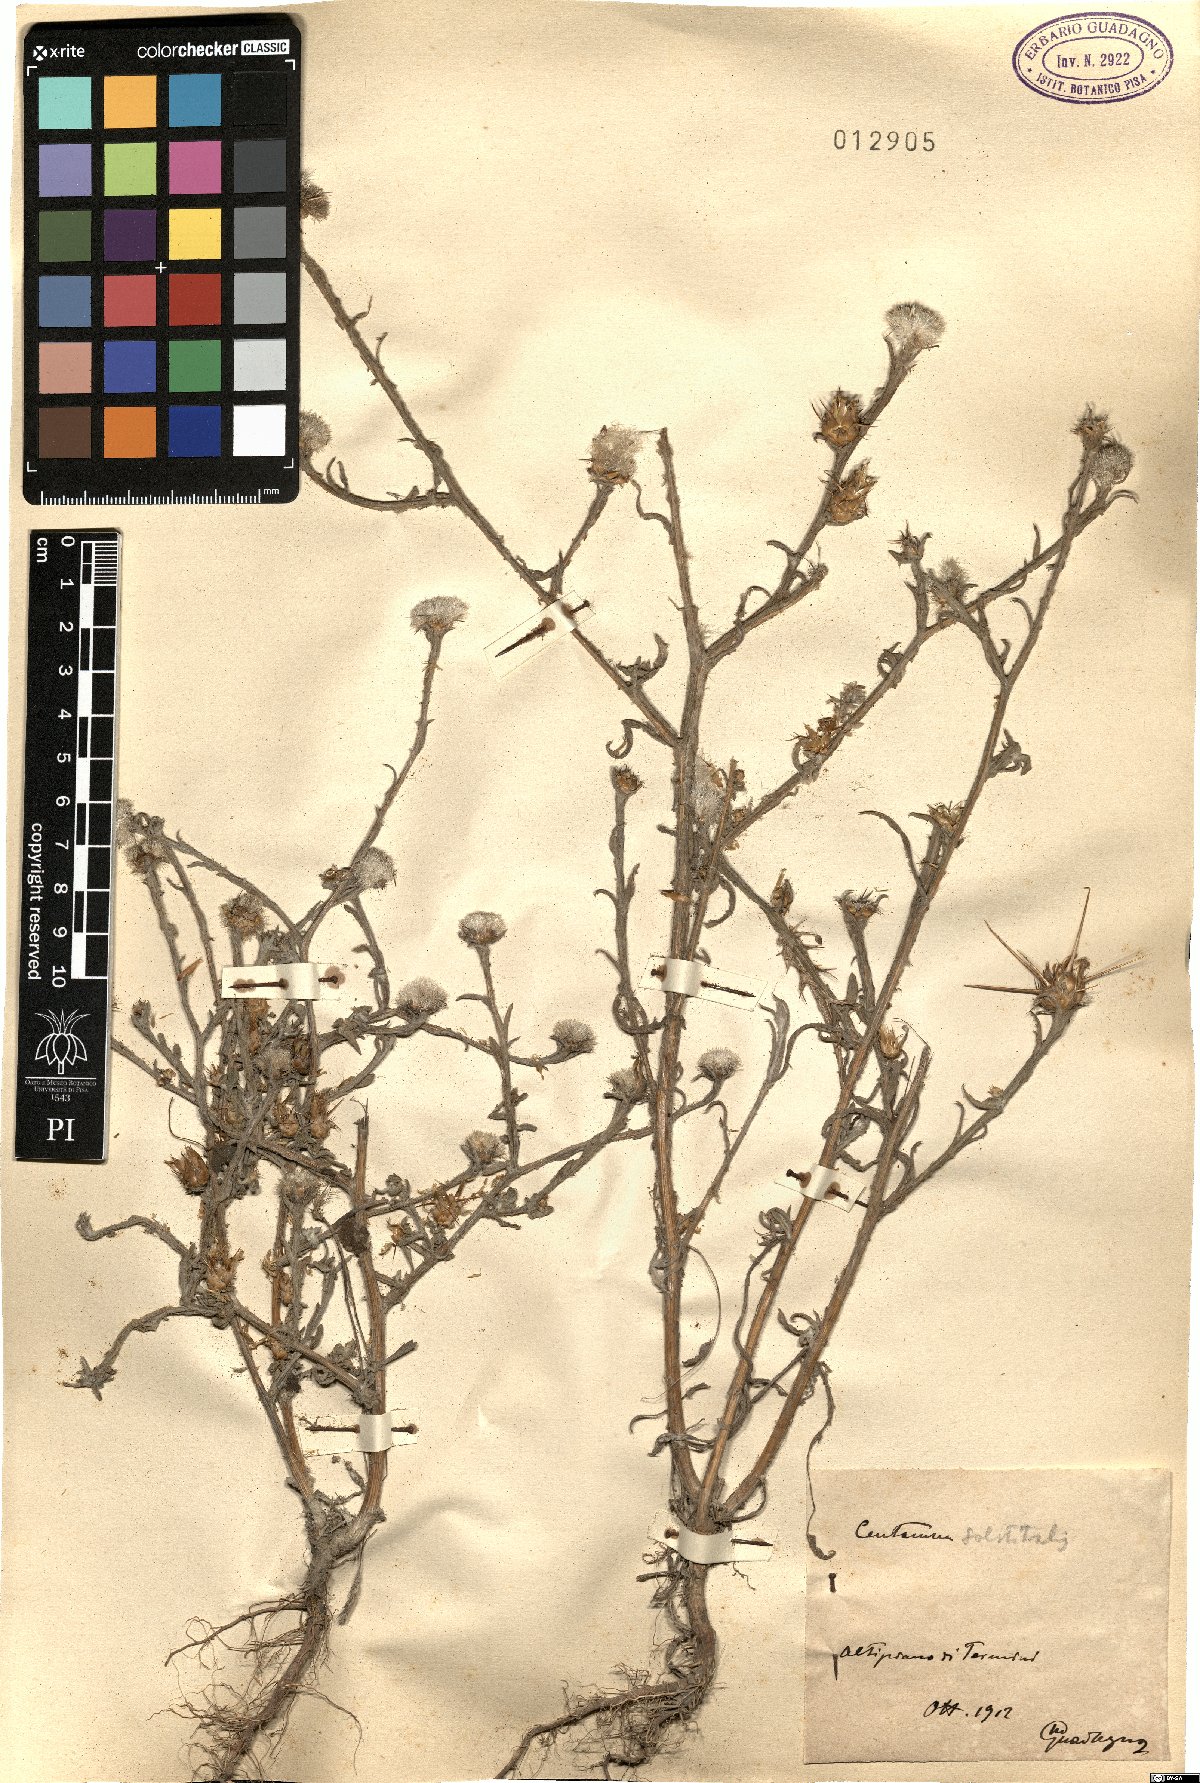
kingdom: Plantae
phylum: Tracheophyta
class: Magnoliopsida
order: Asterales
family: Asteraceae
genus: Centaurea
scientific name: Centaurea solstitialis
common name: Yellow star-thistle
